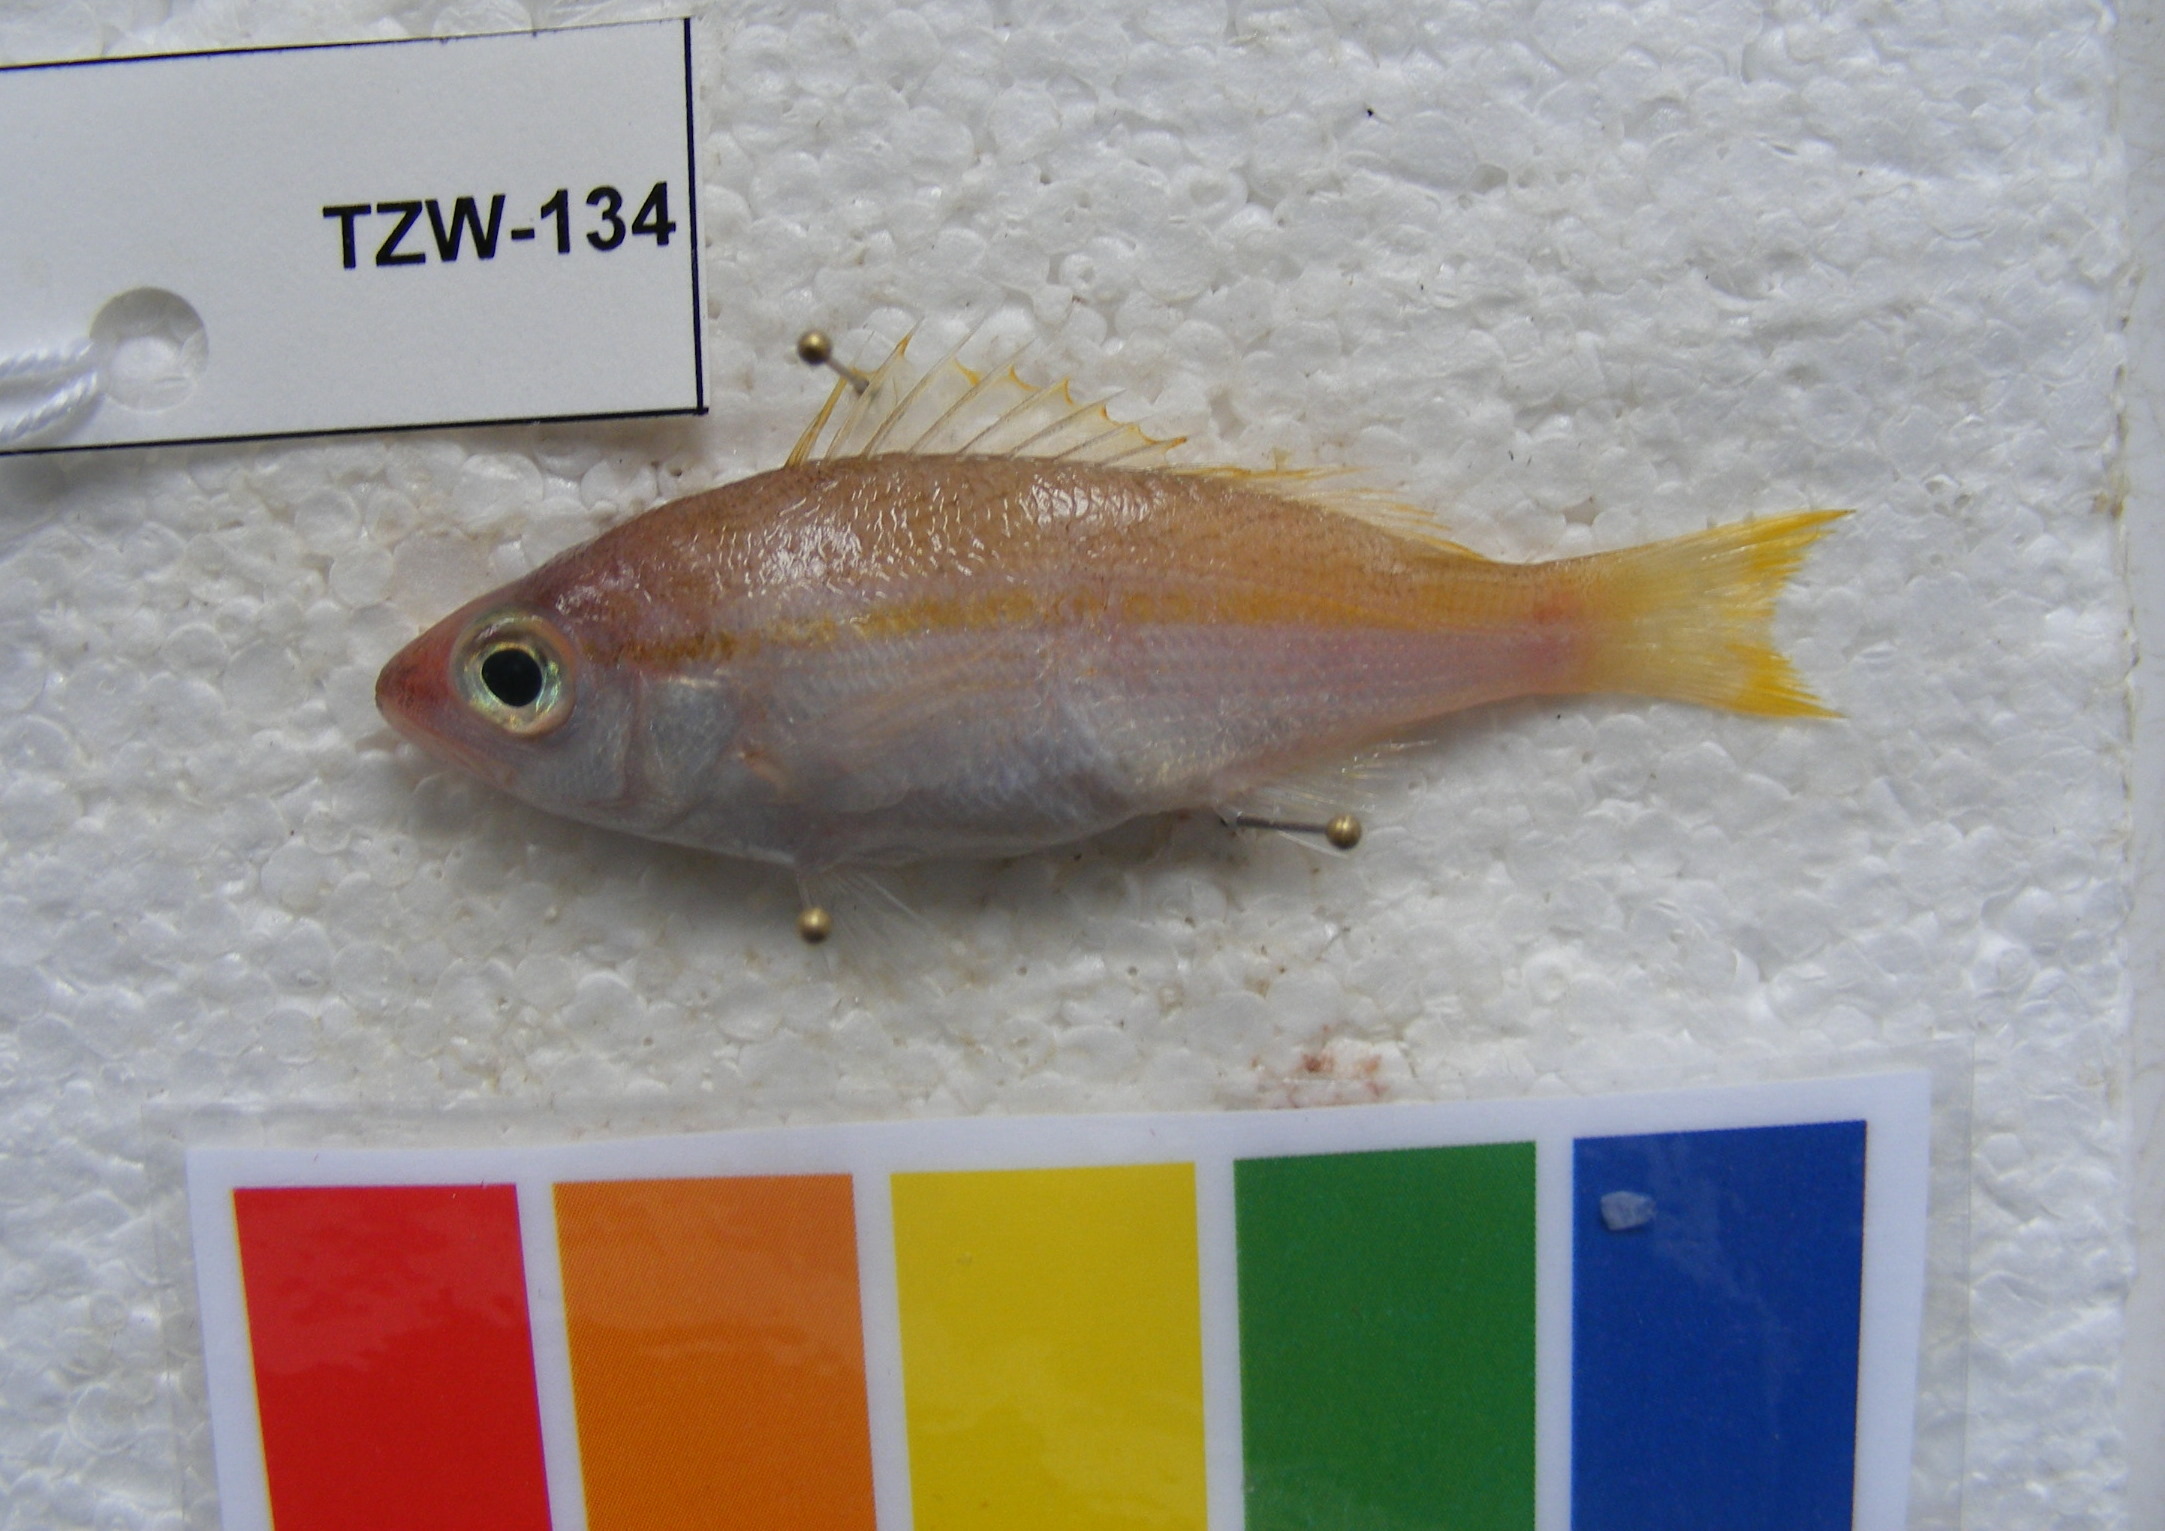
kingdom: Animalia
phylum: Chordata
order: Perciformes
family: Lutjanidae
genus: Lutjanus
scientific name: Lutjanus lutjanus
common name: Bigeye snapper
